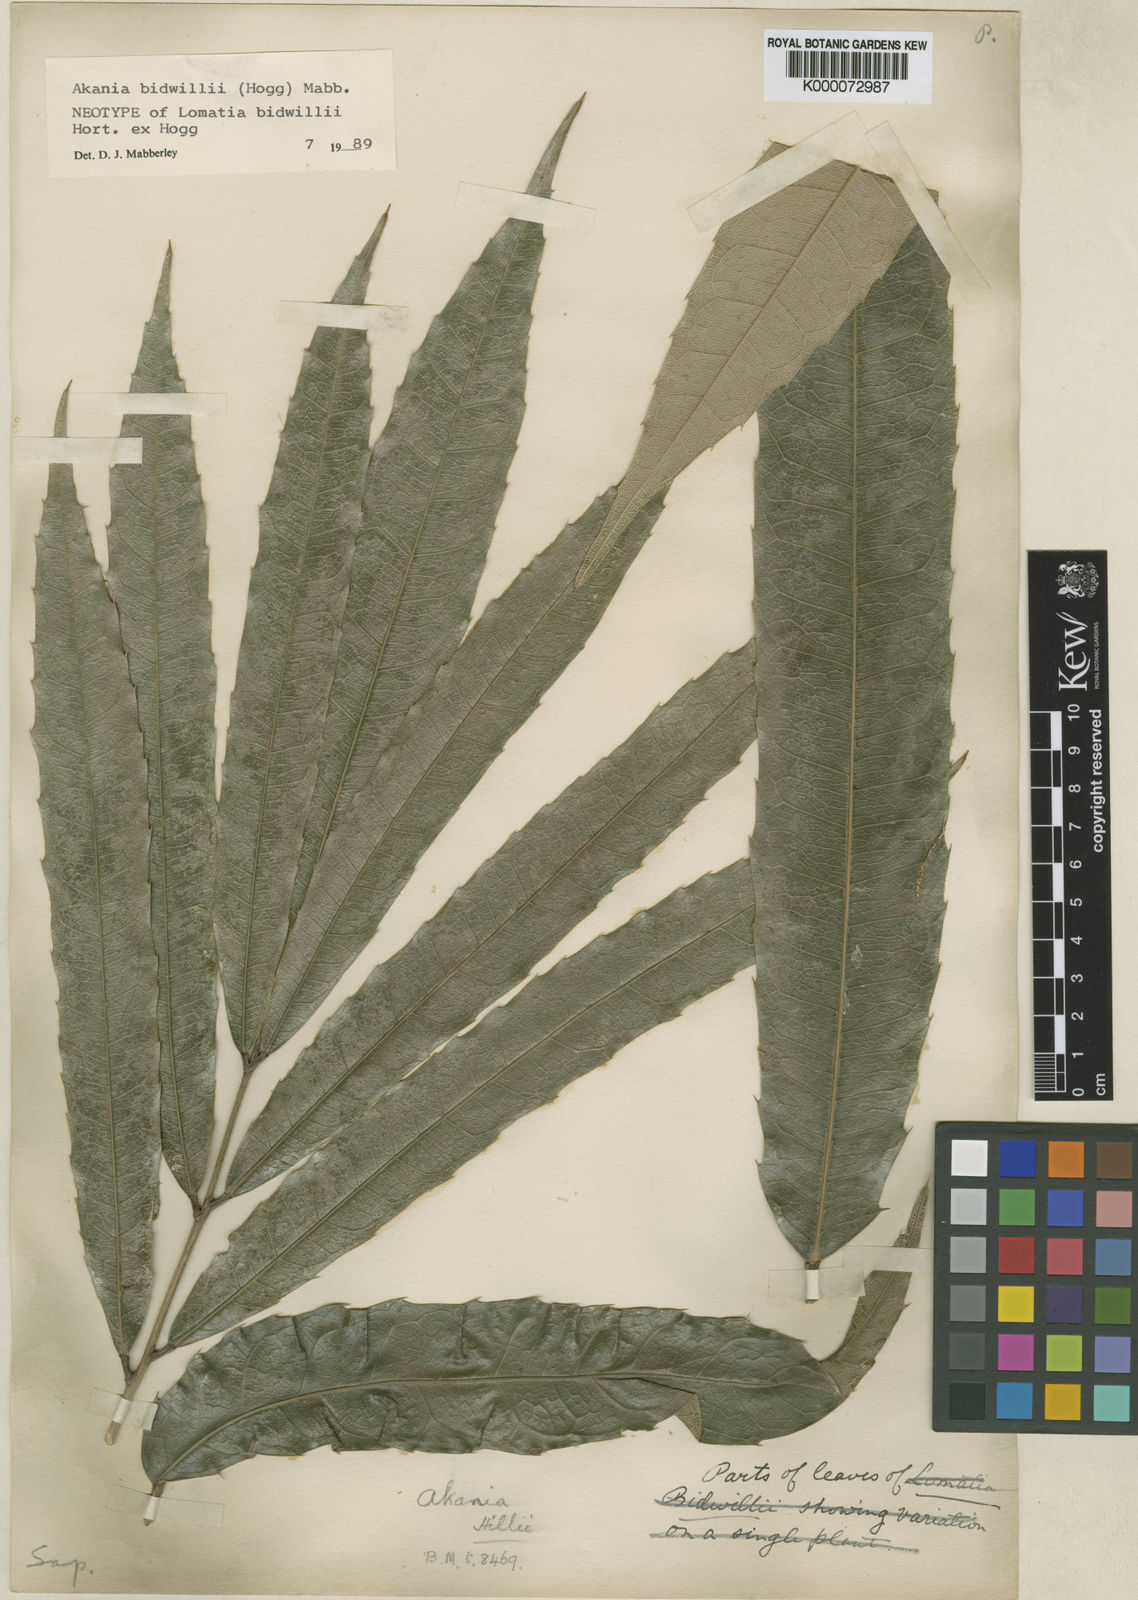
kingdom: Plantae
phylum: Tracheophyta
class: Magnoliopsida
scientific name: Magnoliopsida
